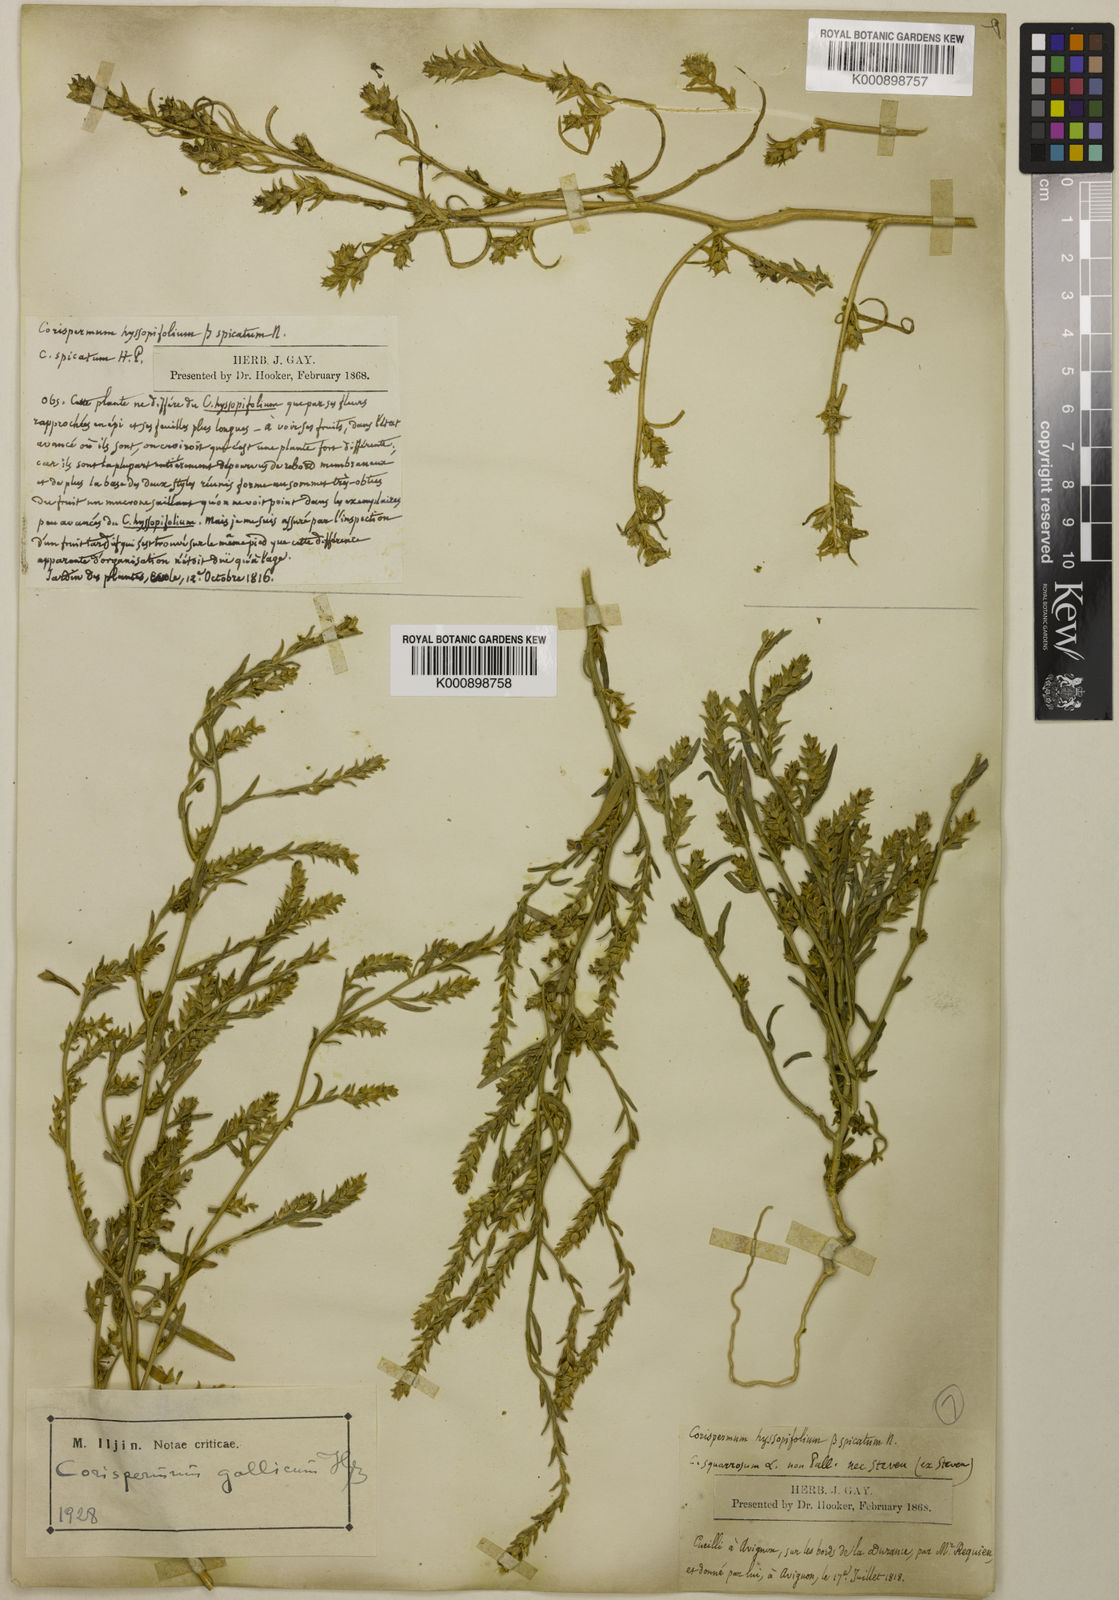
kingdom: Plantae
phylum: Tracheophyta
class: Magnoliopsida
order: Caryophyllales
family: Amaranthaceae
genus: Corispermum
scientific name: Corispermum pallasii
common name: Siberian bugseed
